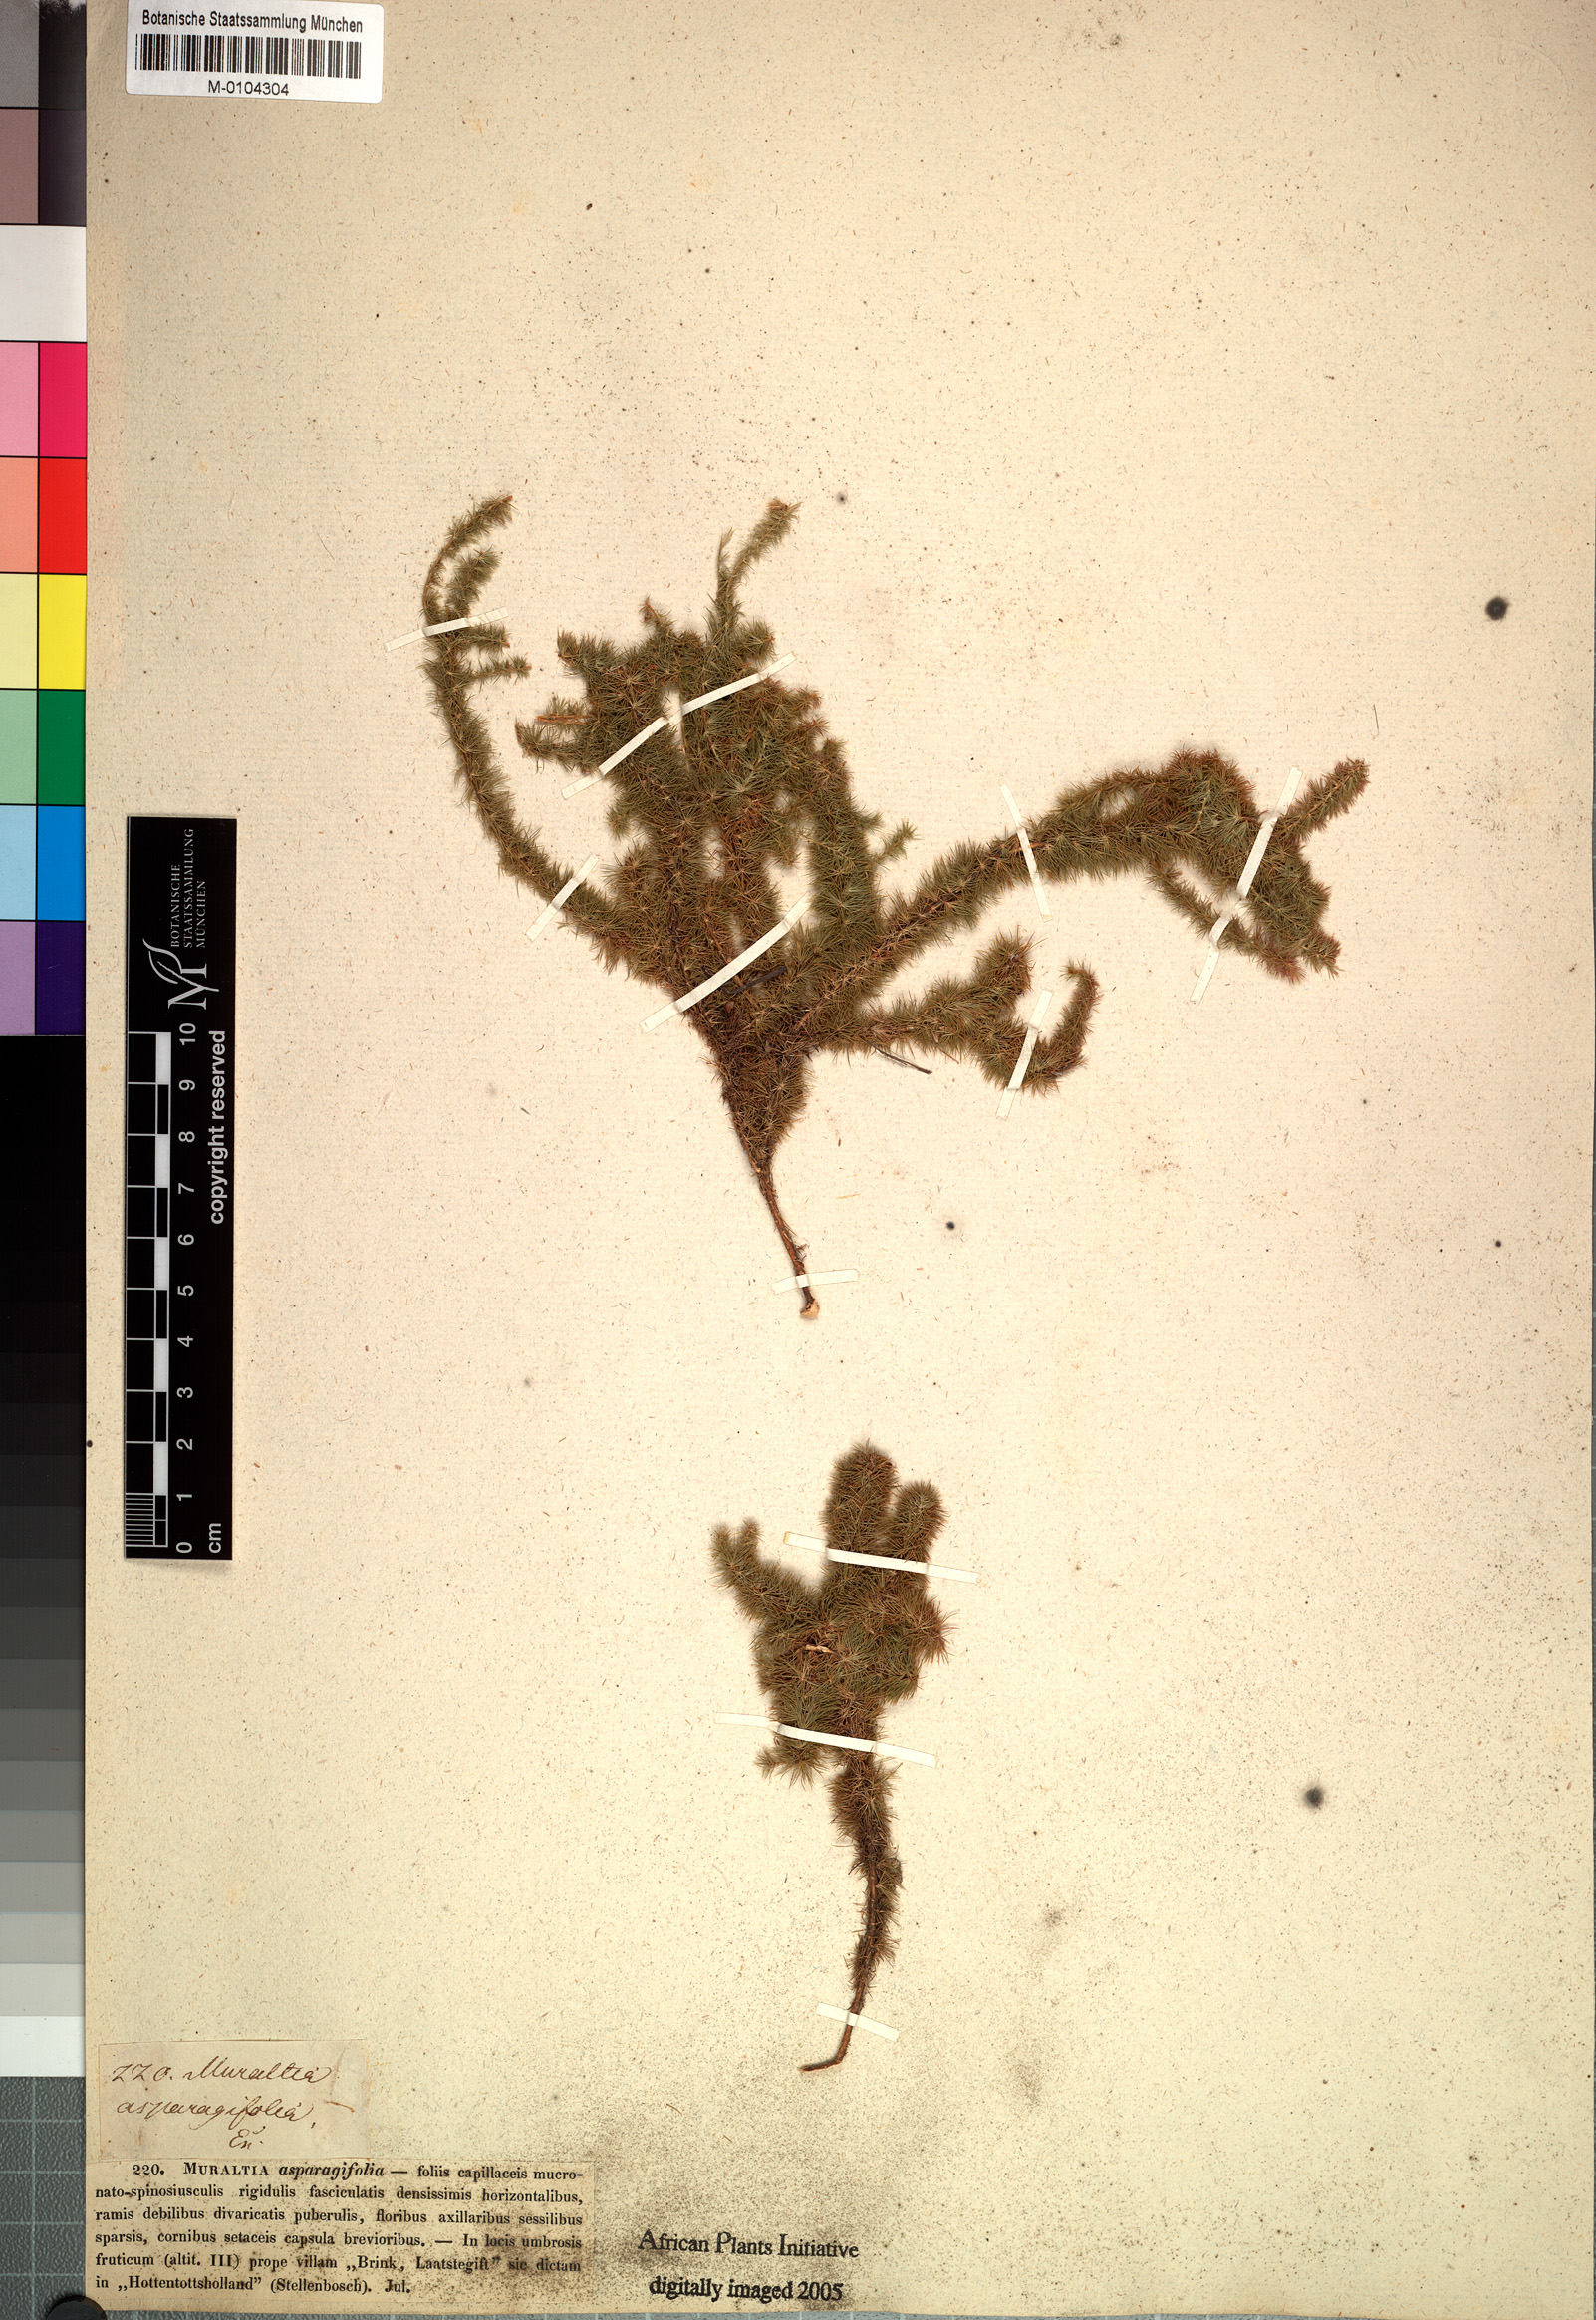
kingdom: Plantae
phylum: Tracheophyta
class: Magnoliopsida
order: Fabales
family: Polygalaceae
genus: Muraltia
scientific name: Muraltia asparagifolia
